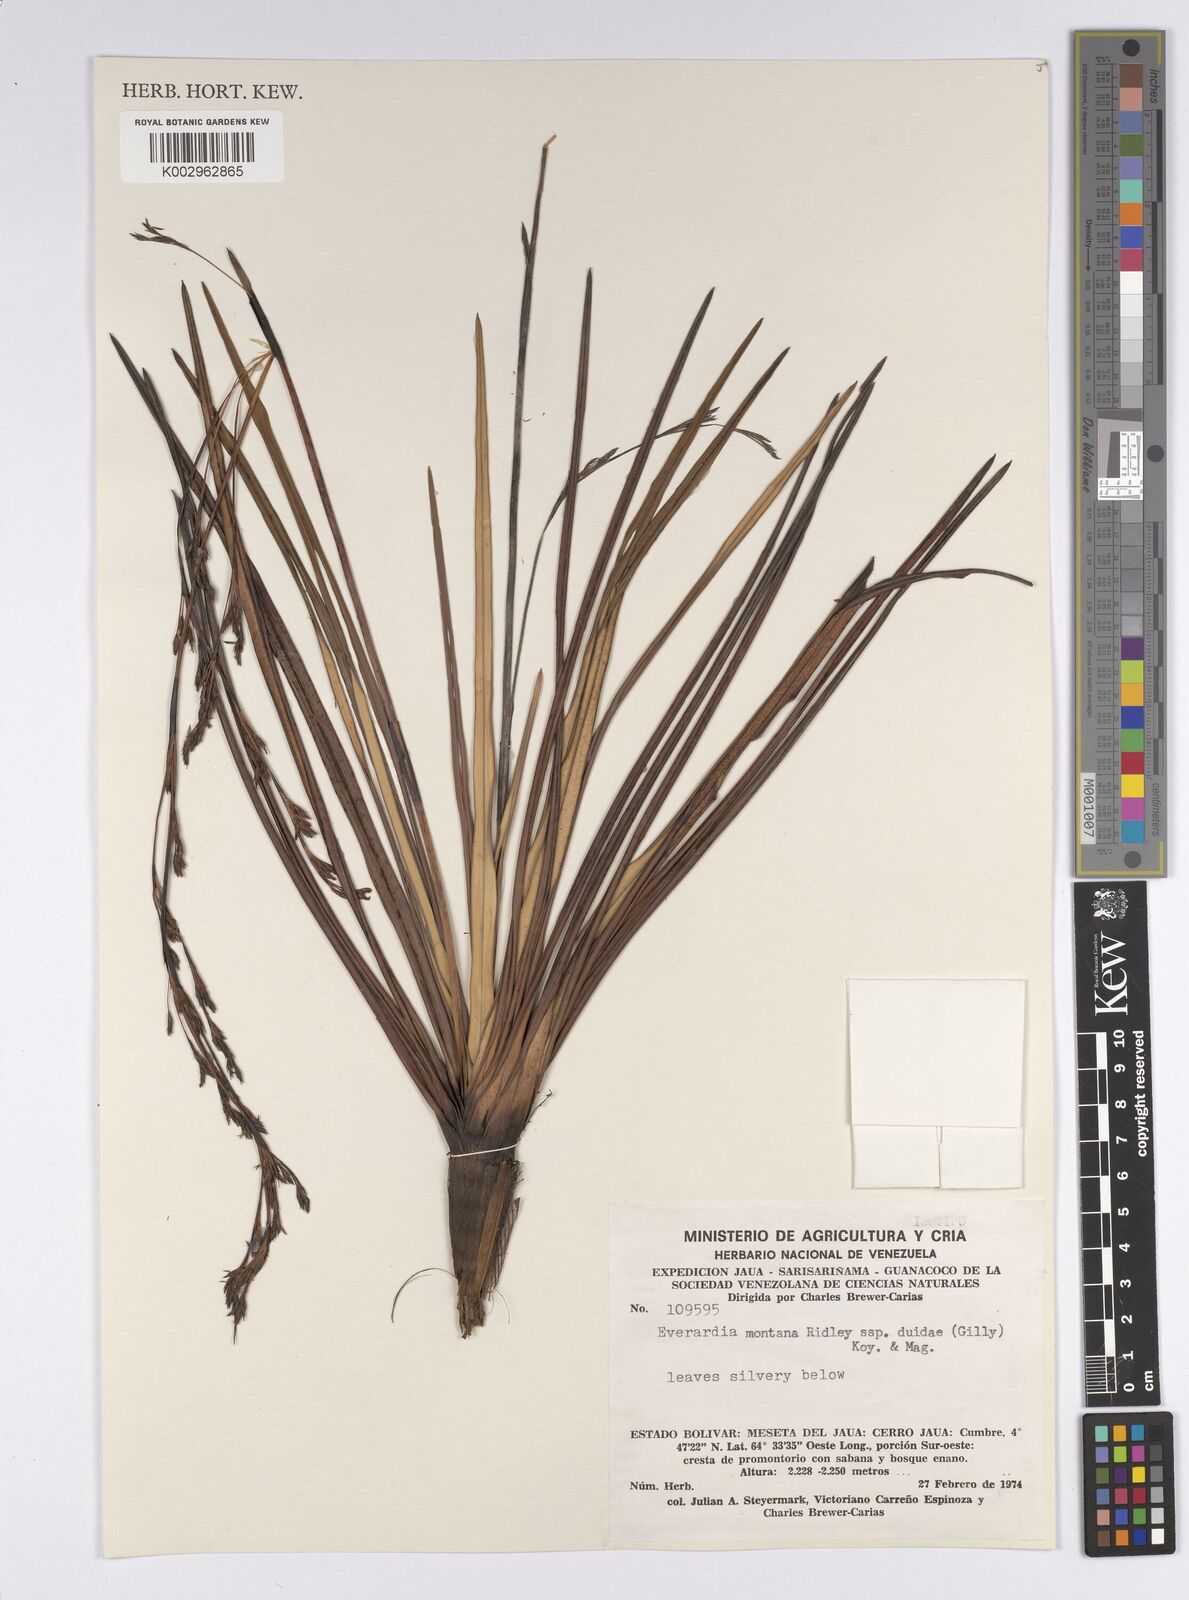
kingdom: Plantae
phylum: Tracheophyta
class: Liliopsida
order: Poales
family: Cyperaceae
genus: Cephalocarpus
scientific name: Cephalocarpus duidae
